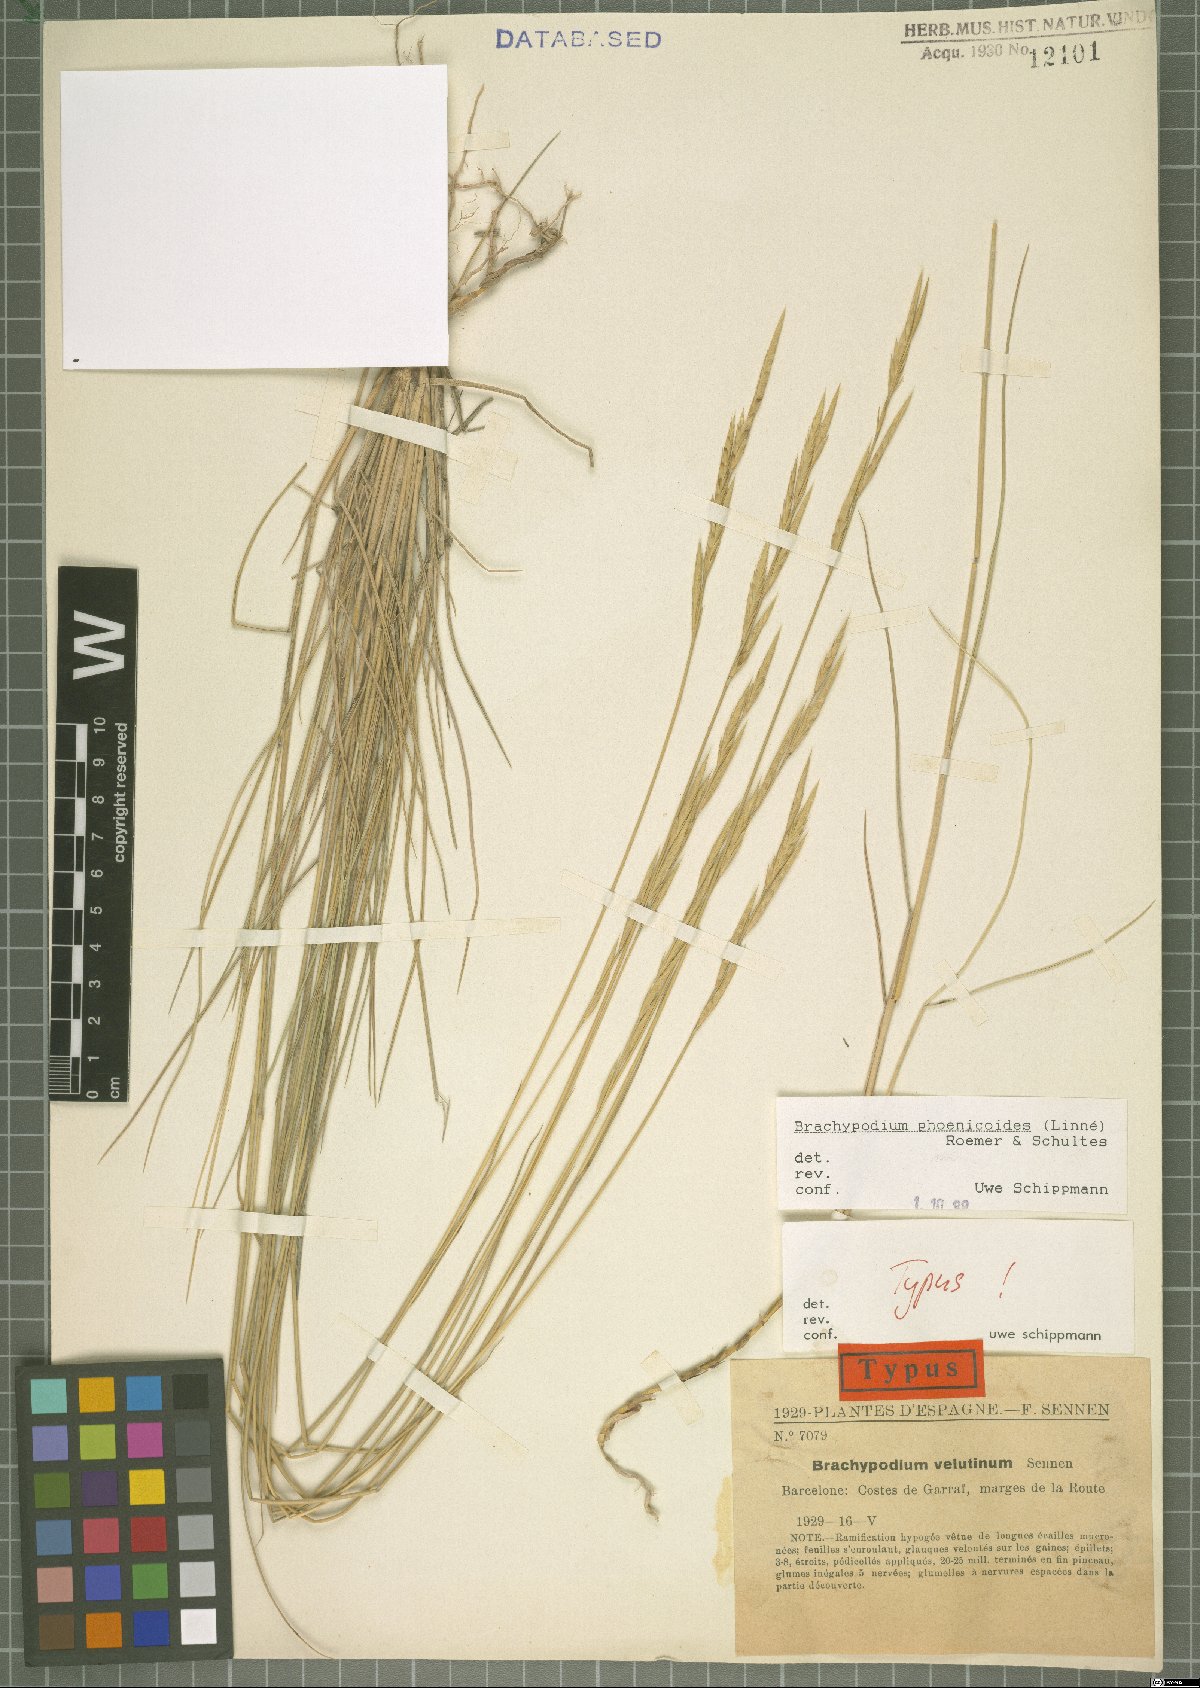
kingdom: Plantae
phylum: Tracheophyta
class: Liliopsida
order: Poales
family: Poaceae
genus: Brachypodium
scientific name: Brachypodium phoenicoides
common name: Thinleaf false brome
